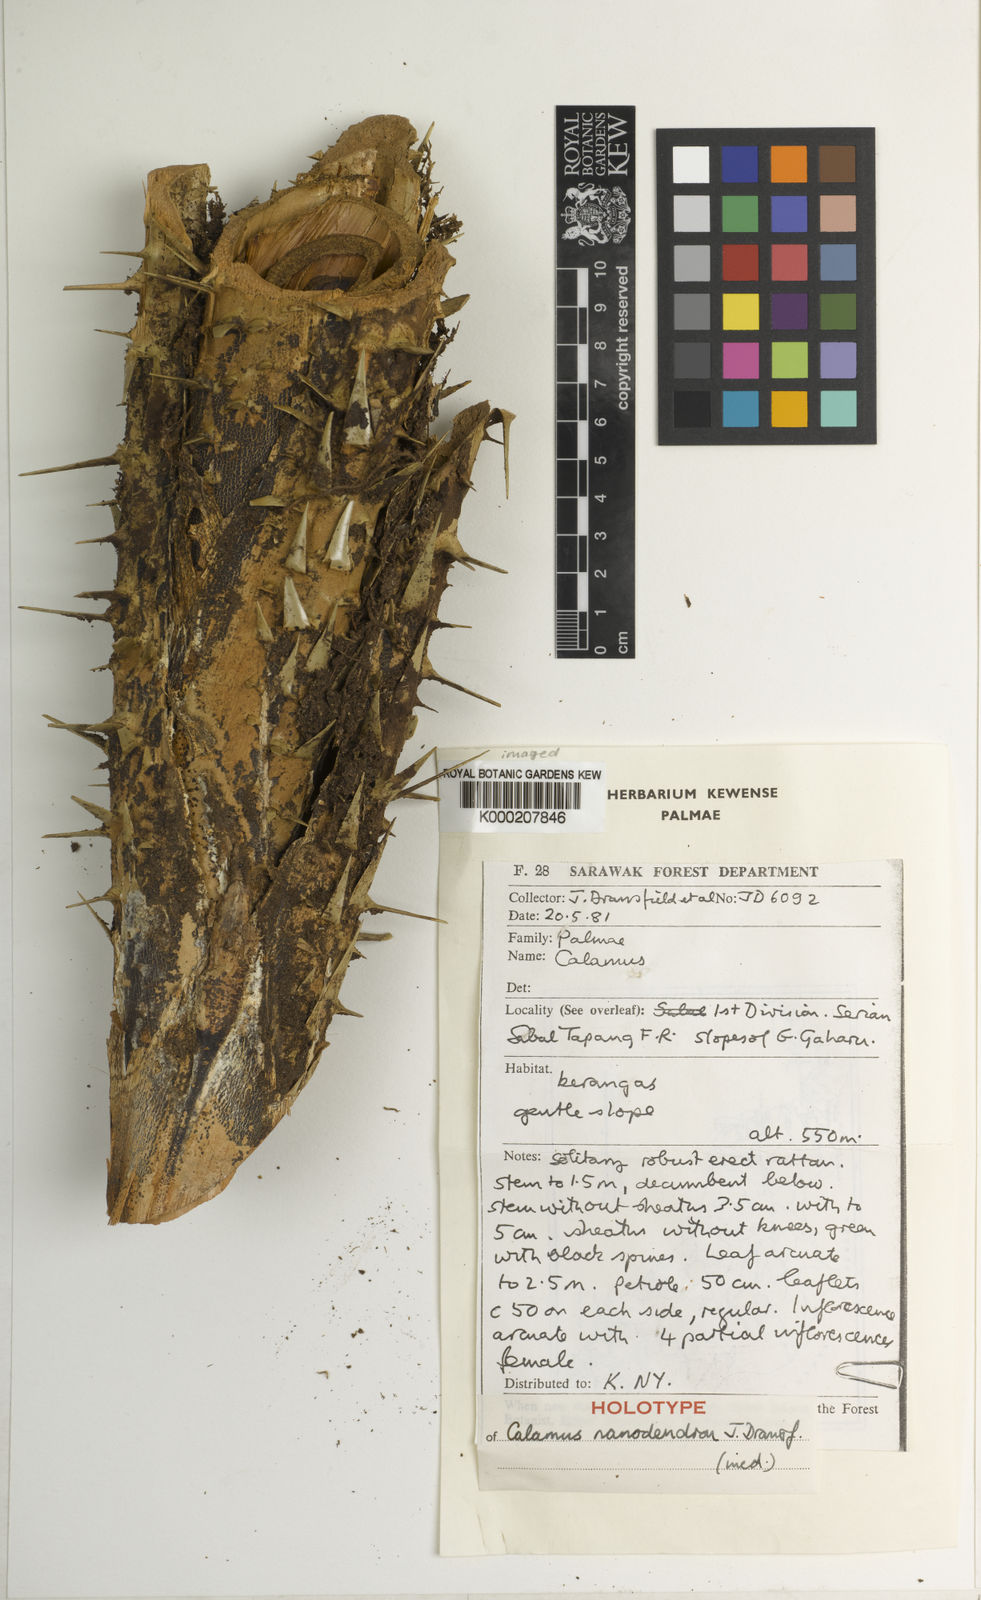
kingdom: Plantae
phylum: Tracheophyta
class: Liliopsida
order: Arecales
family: Arecaceae
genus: Calamus
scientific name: Calamus nanodendron
